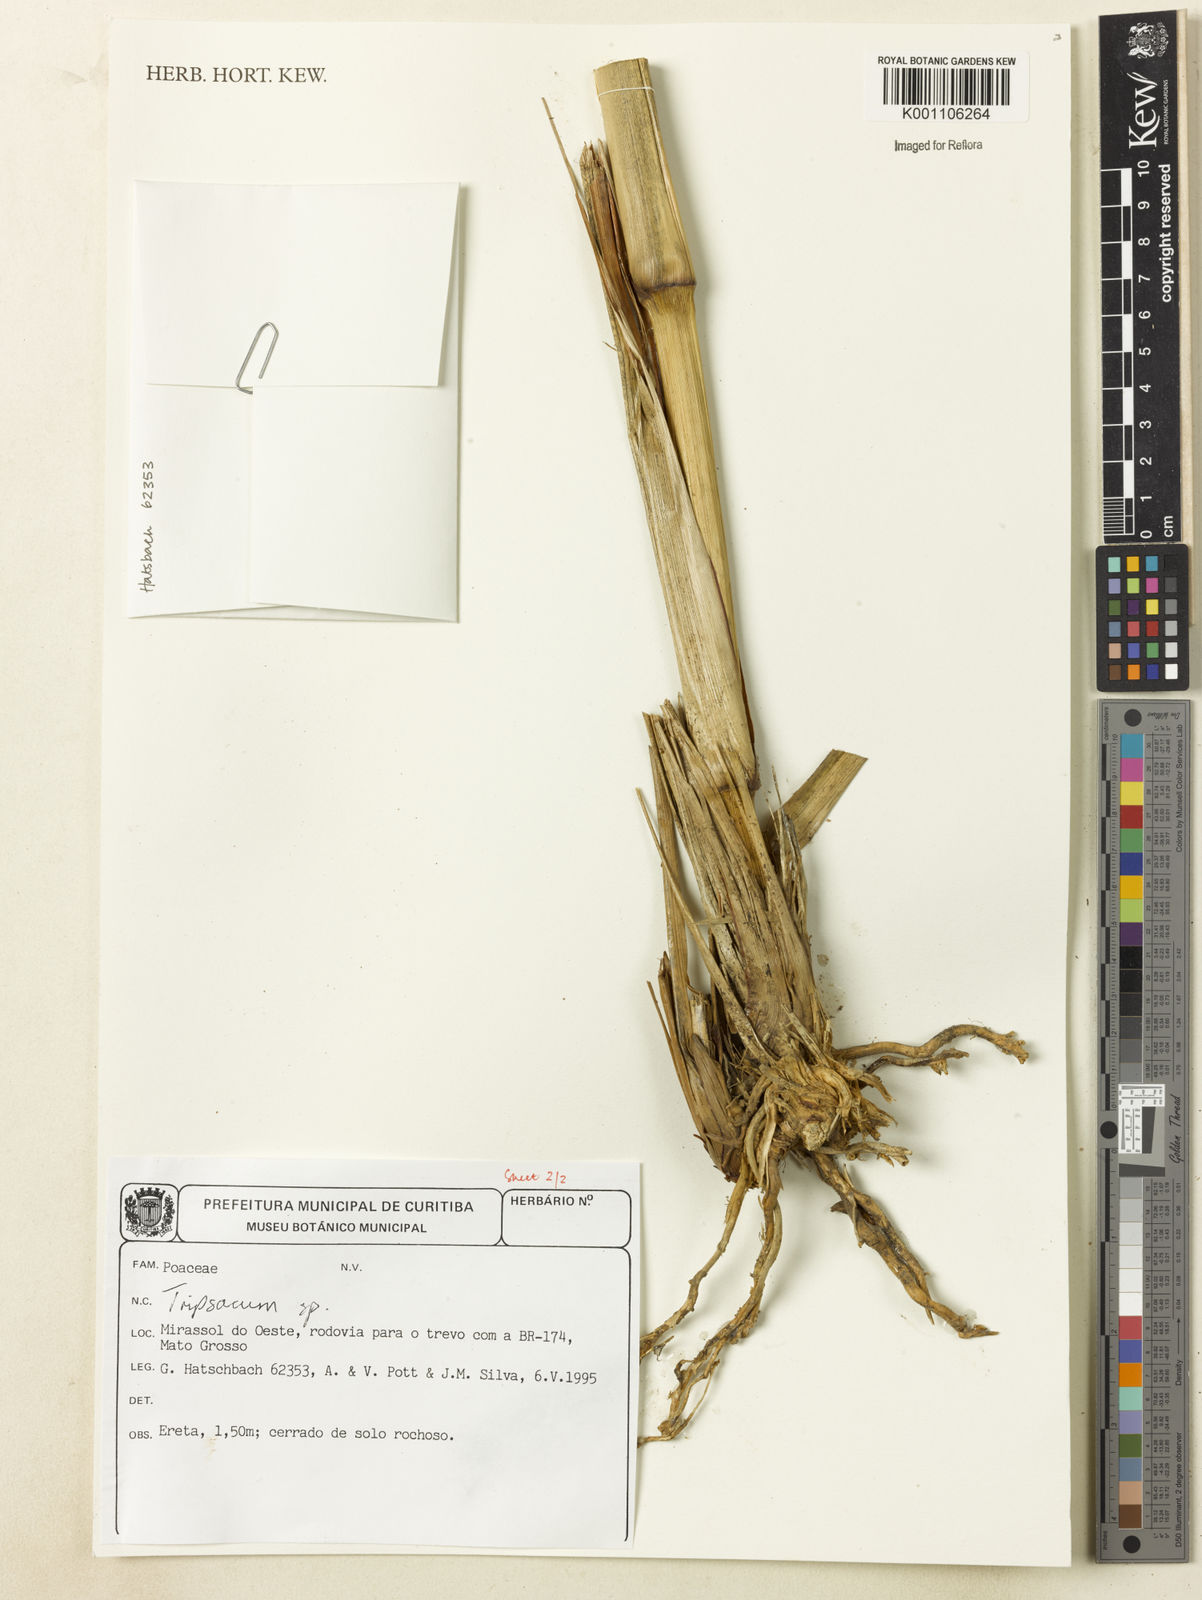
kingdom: Plantae
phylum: Tracheophyta
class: Liliopsida
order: Poales
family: Poaceae
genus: Tripsacum
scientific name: Tripsacum
